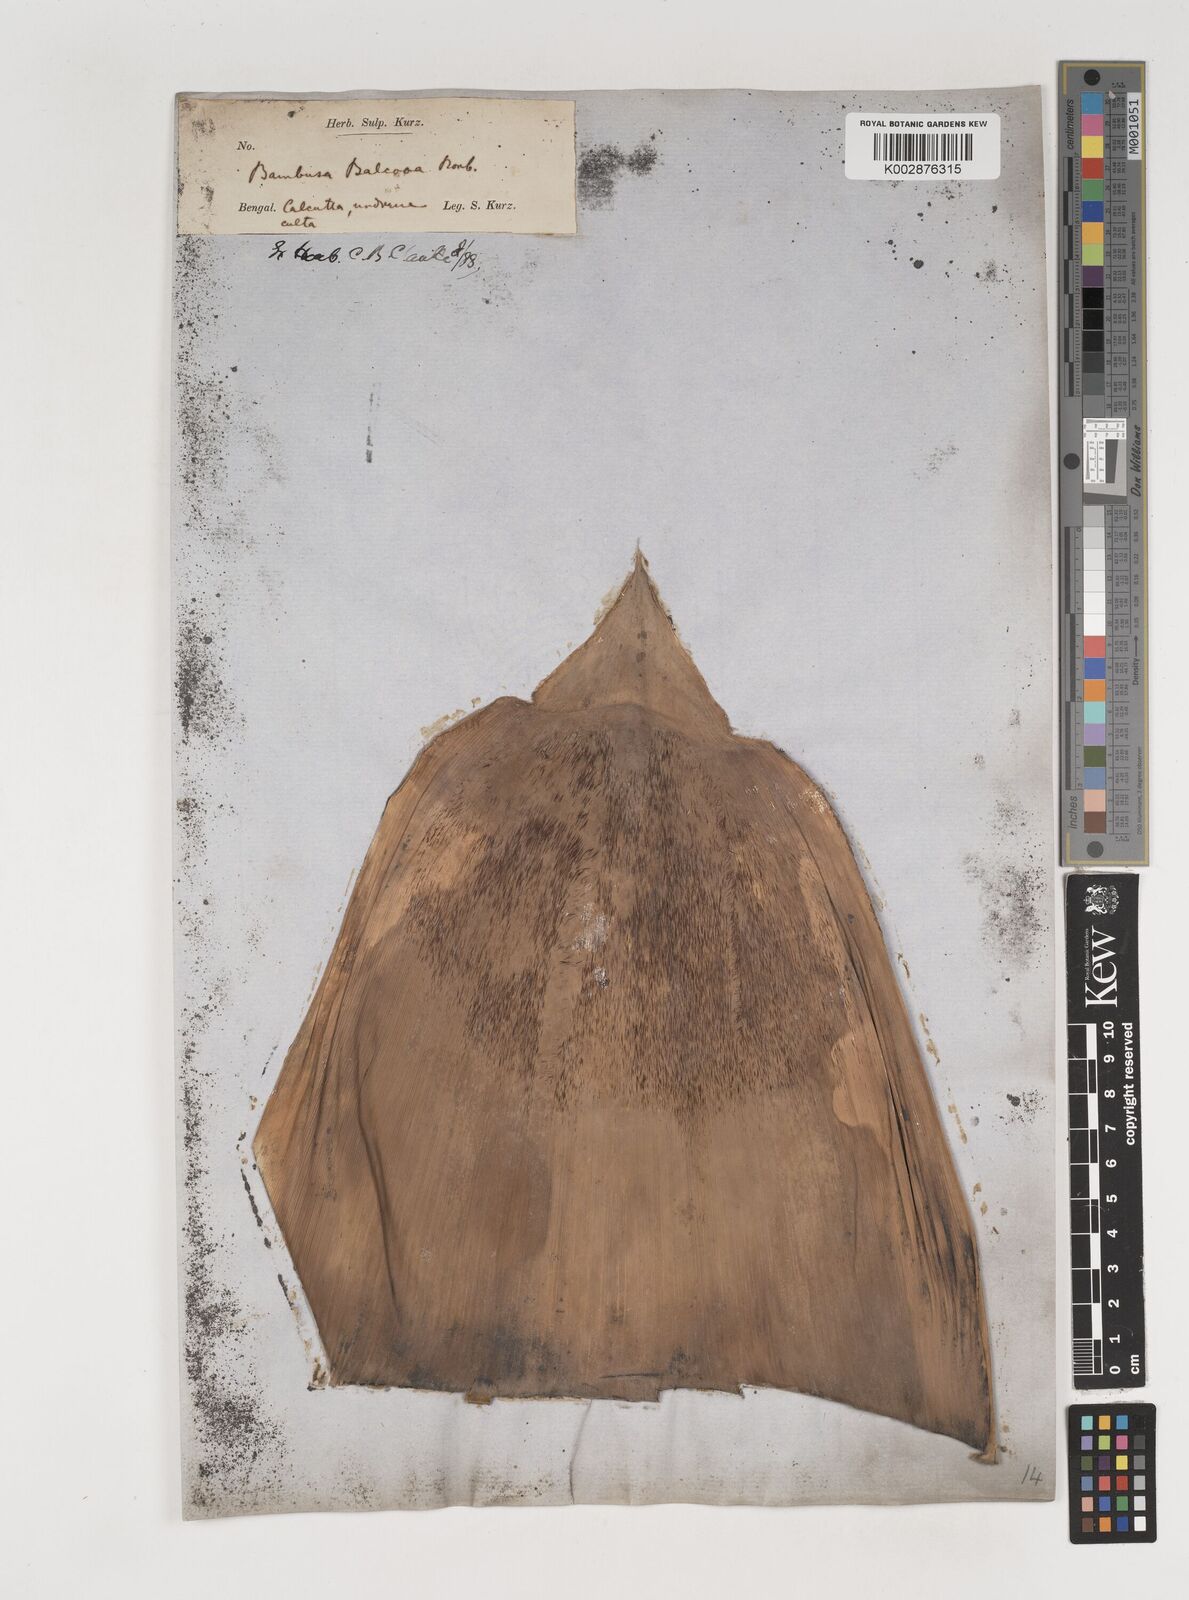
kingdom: Plantae
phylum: Tracheophyta
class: Liliopsida
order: Poales
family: Poaceae
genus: Bambusa
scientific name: Bambusa balcooa
